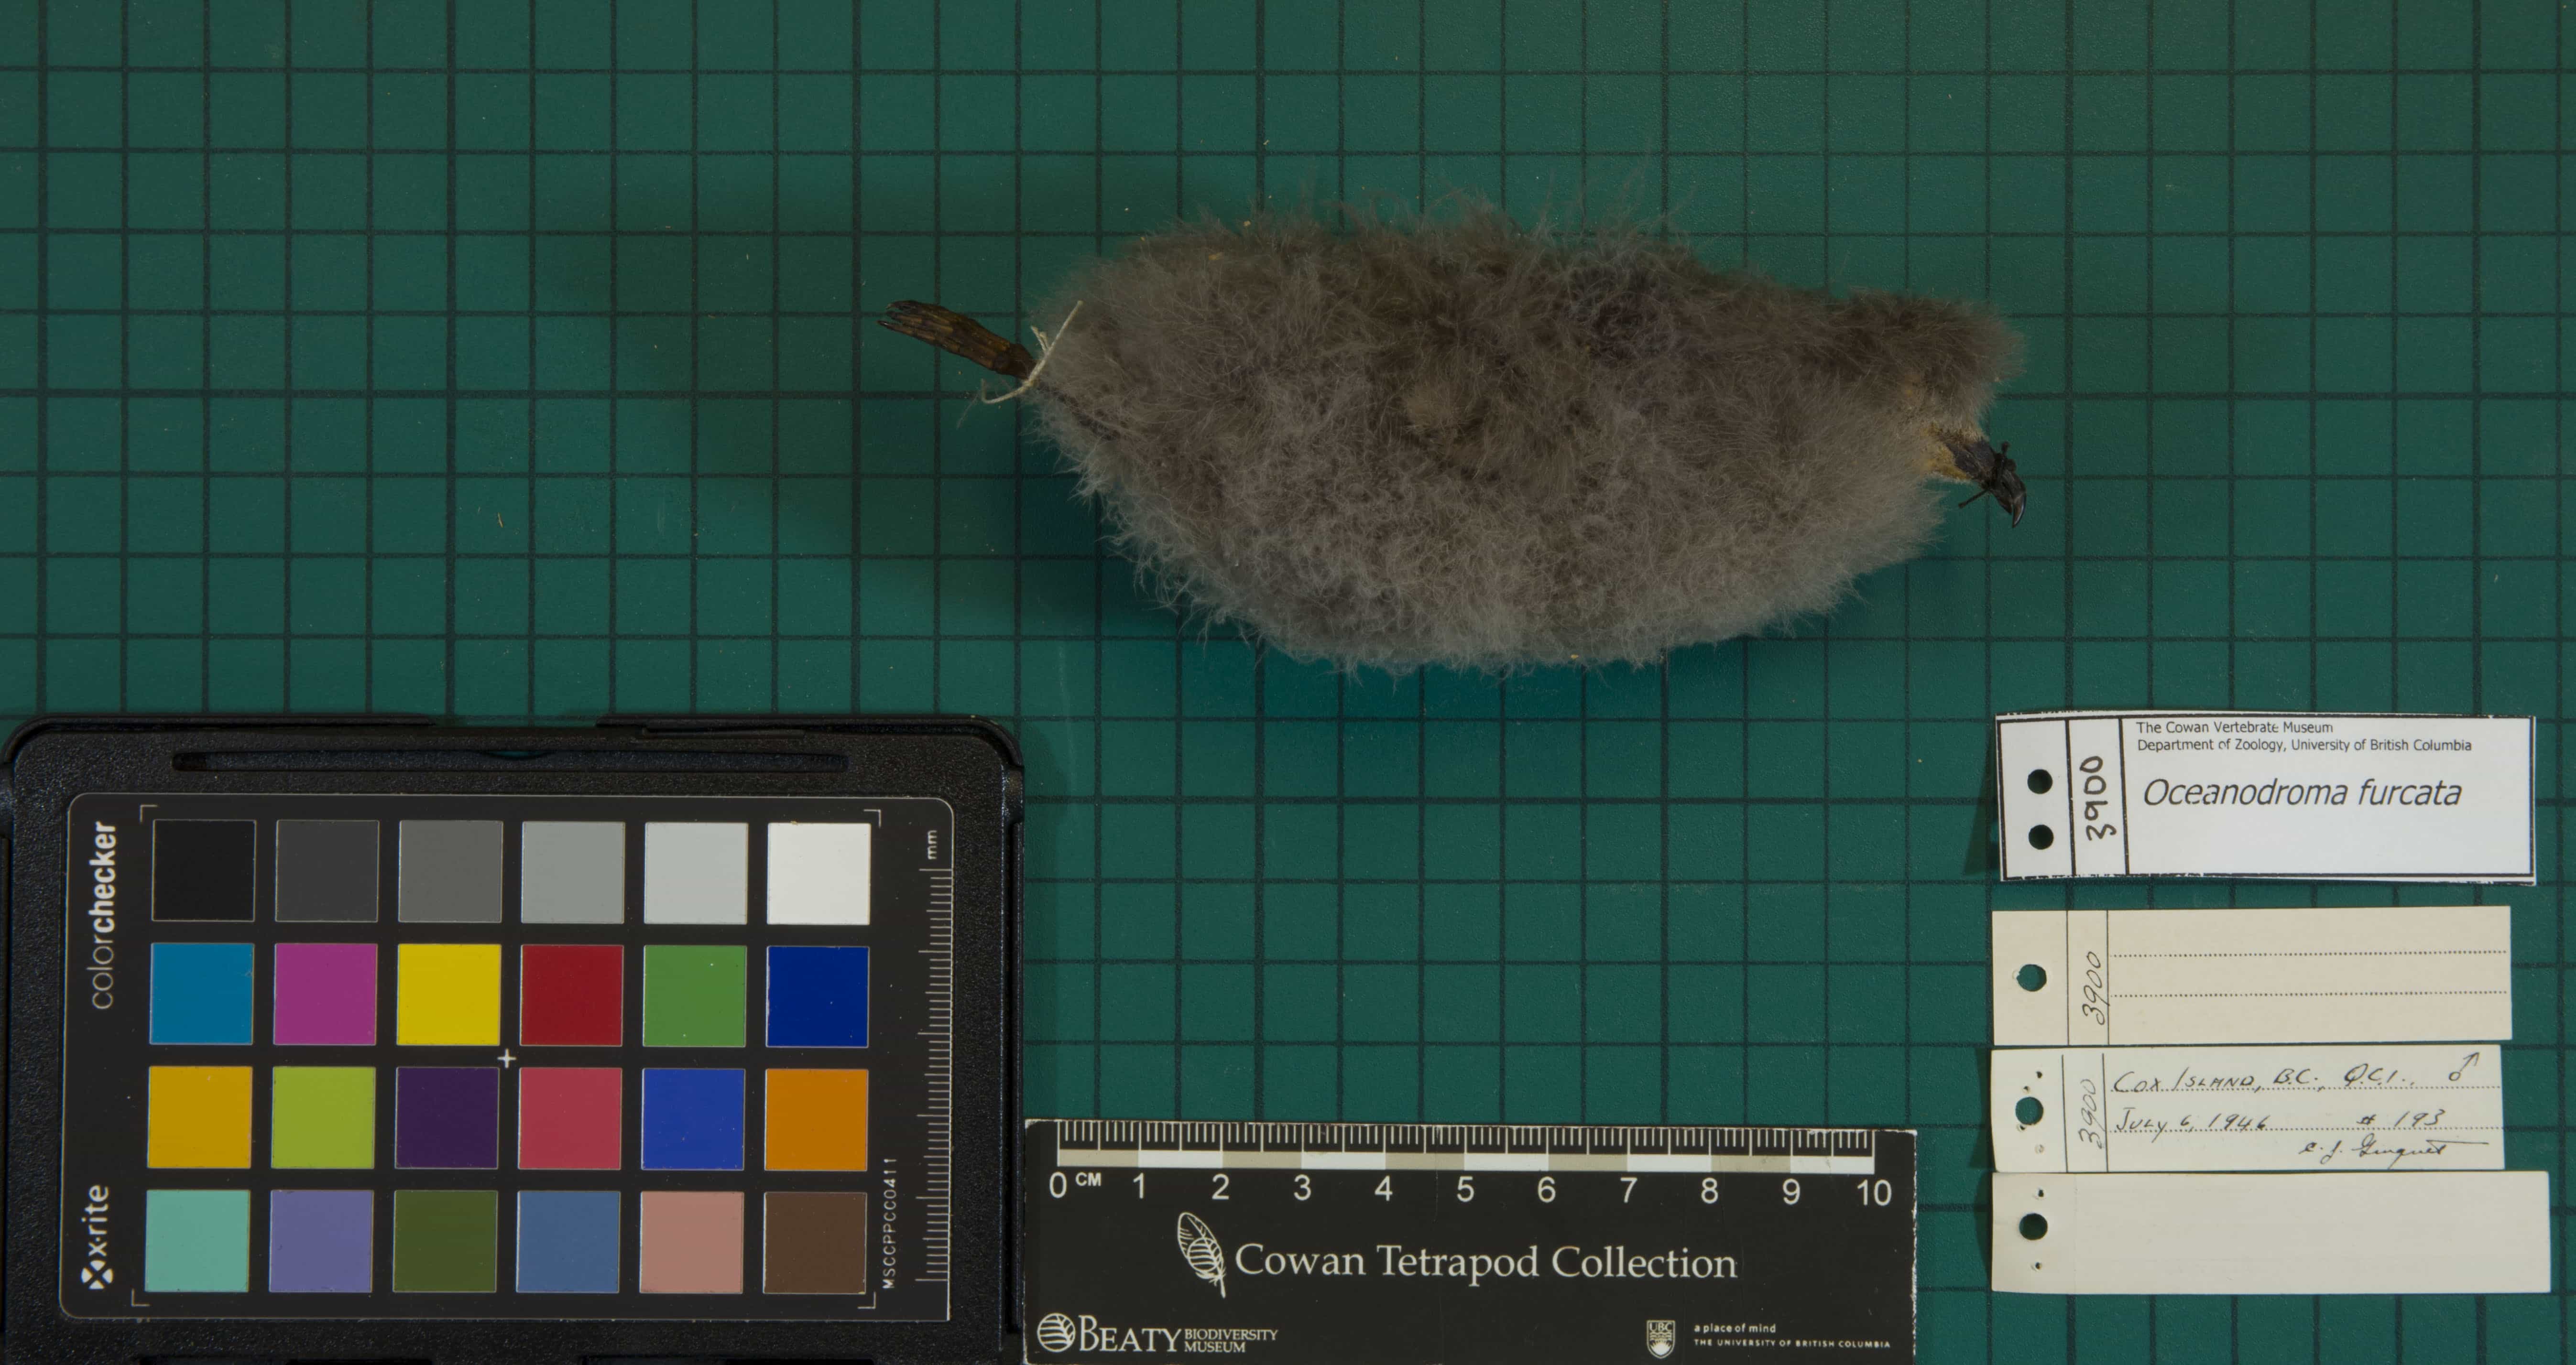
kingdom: Animalia
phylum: Chordata
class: Aves
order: Procellariiformes
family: Hydrobatidae
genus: Oceanodroma
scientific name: Oceanodroma furcata
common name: Fork-tailed Storm-Petrel
